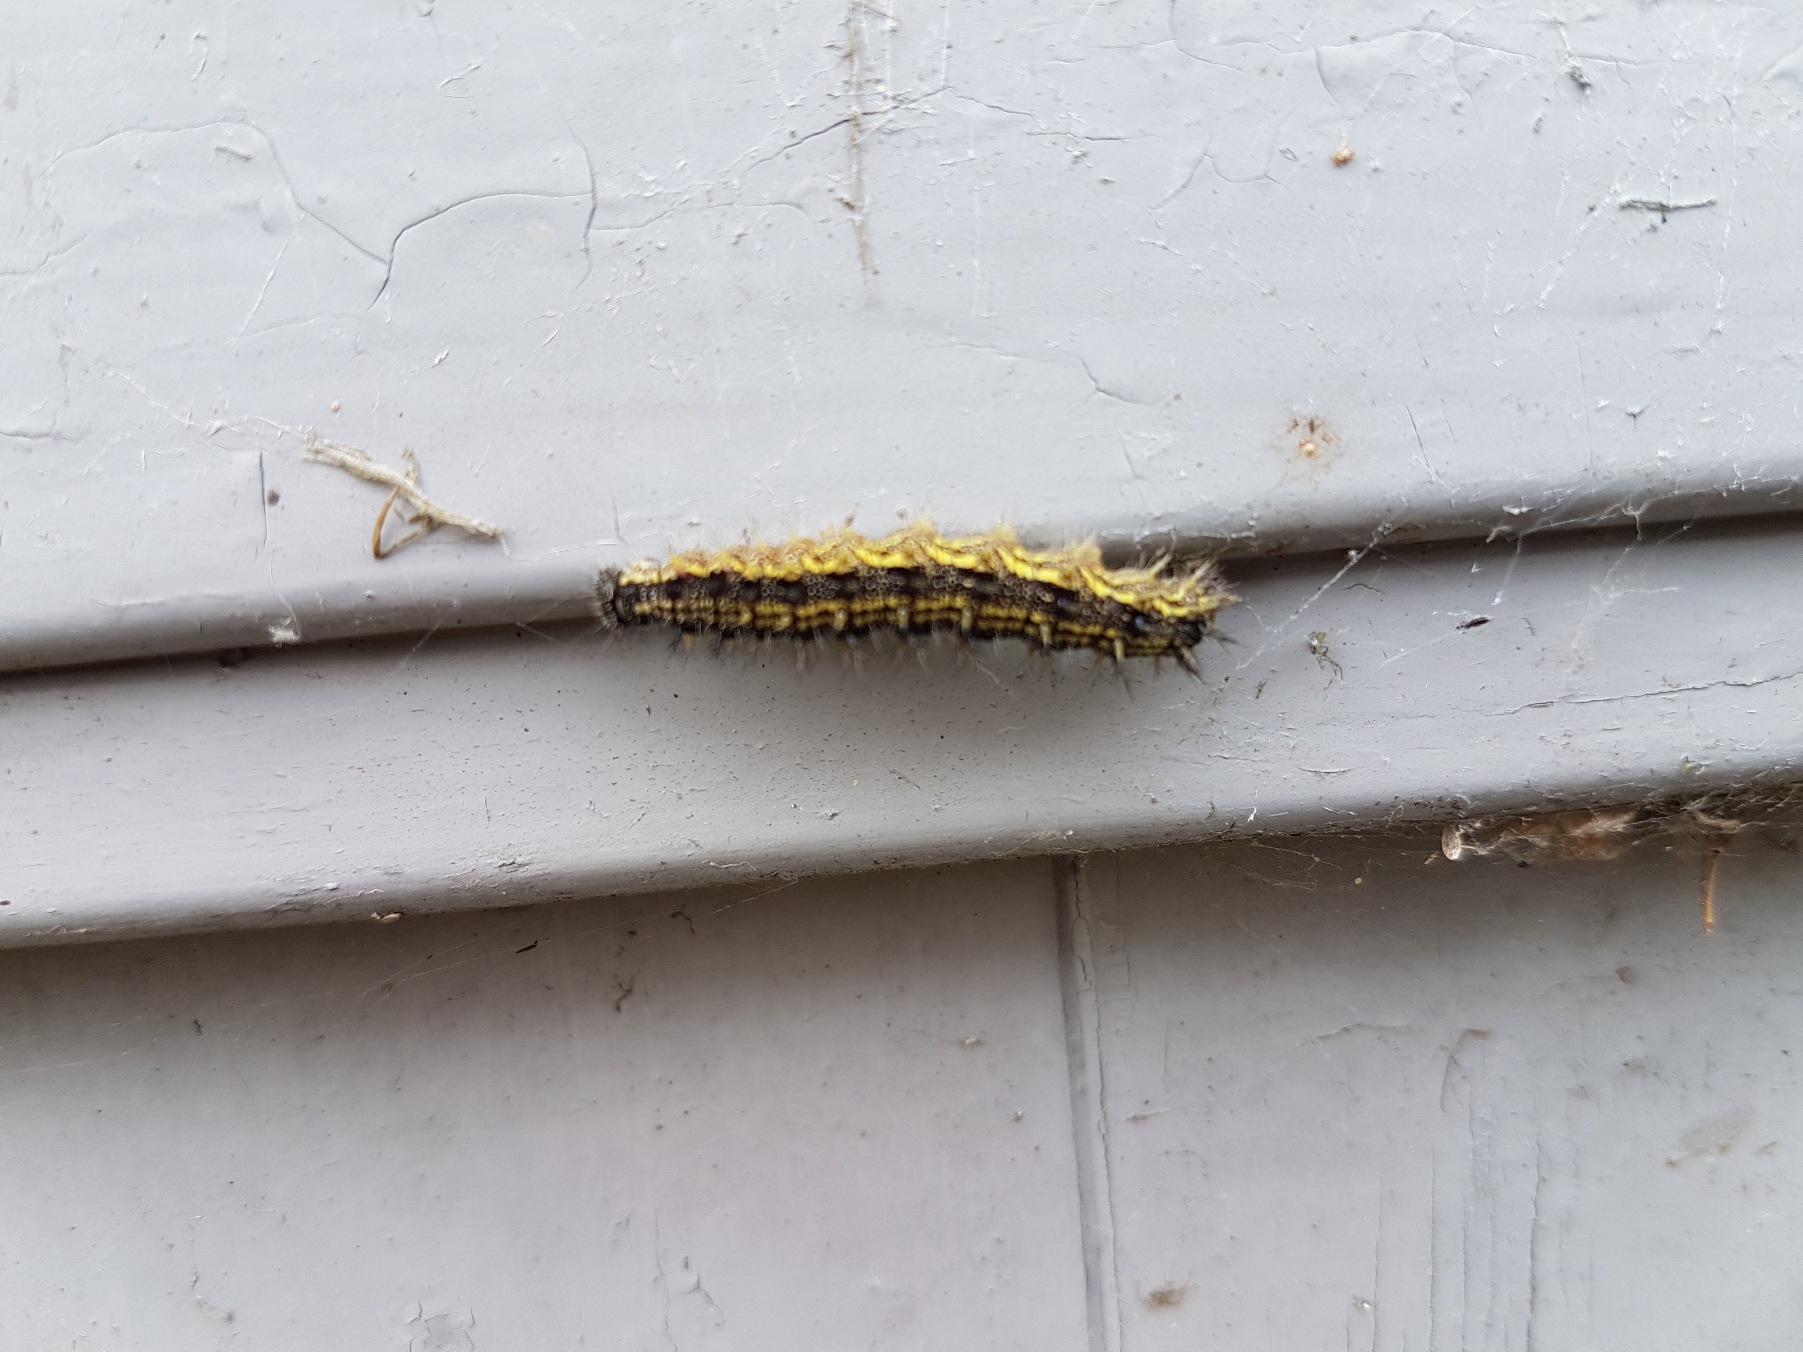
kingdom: Animalia
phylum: Arthropoda
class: Insecta
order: Lepidoptera
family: Nymphalidae
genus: Aglais
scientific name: Aglais urticae
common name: Nældens takvinge
